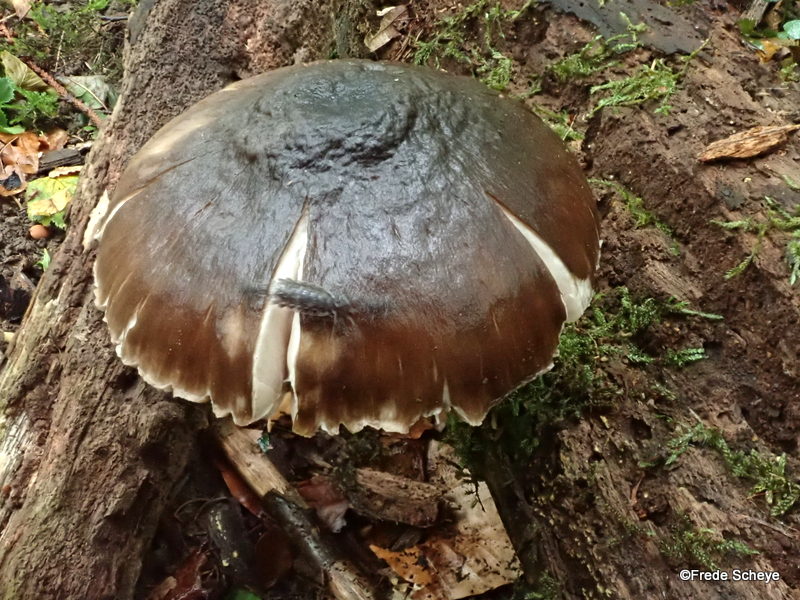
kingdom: Fungi
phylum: Basidiomycota
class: Agaricomycetes
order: Agaricales
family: Pluteaceae
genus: Pluteus
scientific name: Pluteus cervinus
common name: sodfarvet skærmhat
